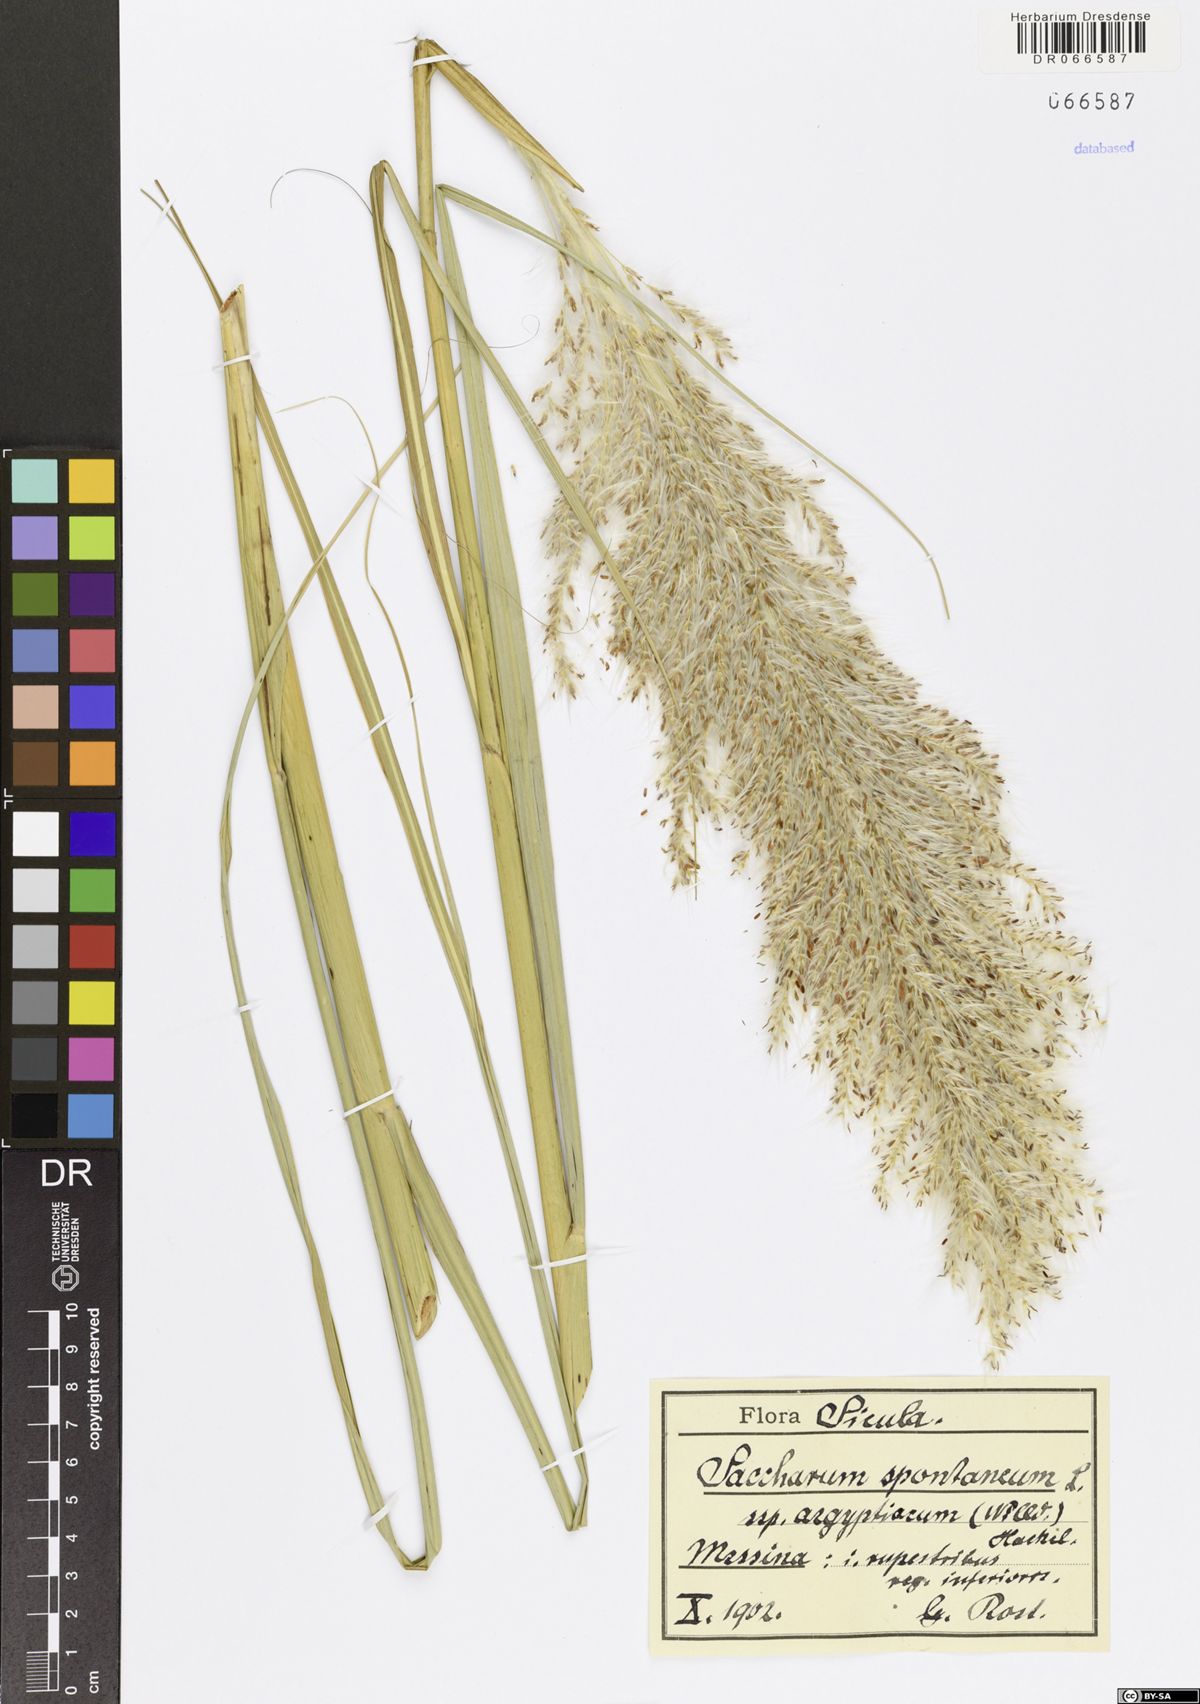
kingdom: Plantae
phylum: Tracheophyta
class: Liliopsida
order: Poales
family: Poaceae
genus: Saccharum
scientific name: Saccharum spontaneum
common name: Wild sugarcane
